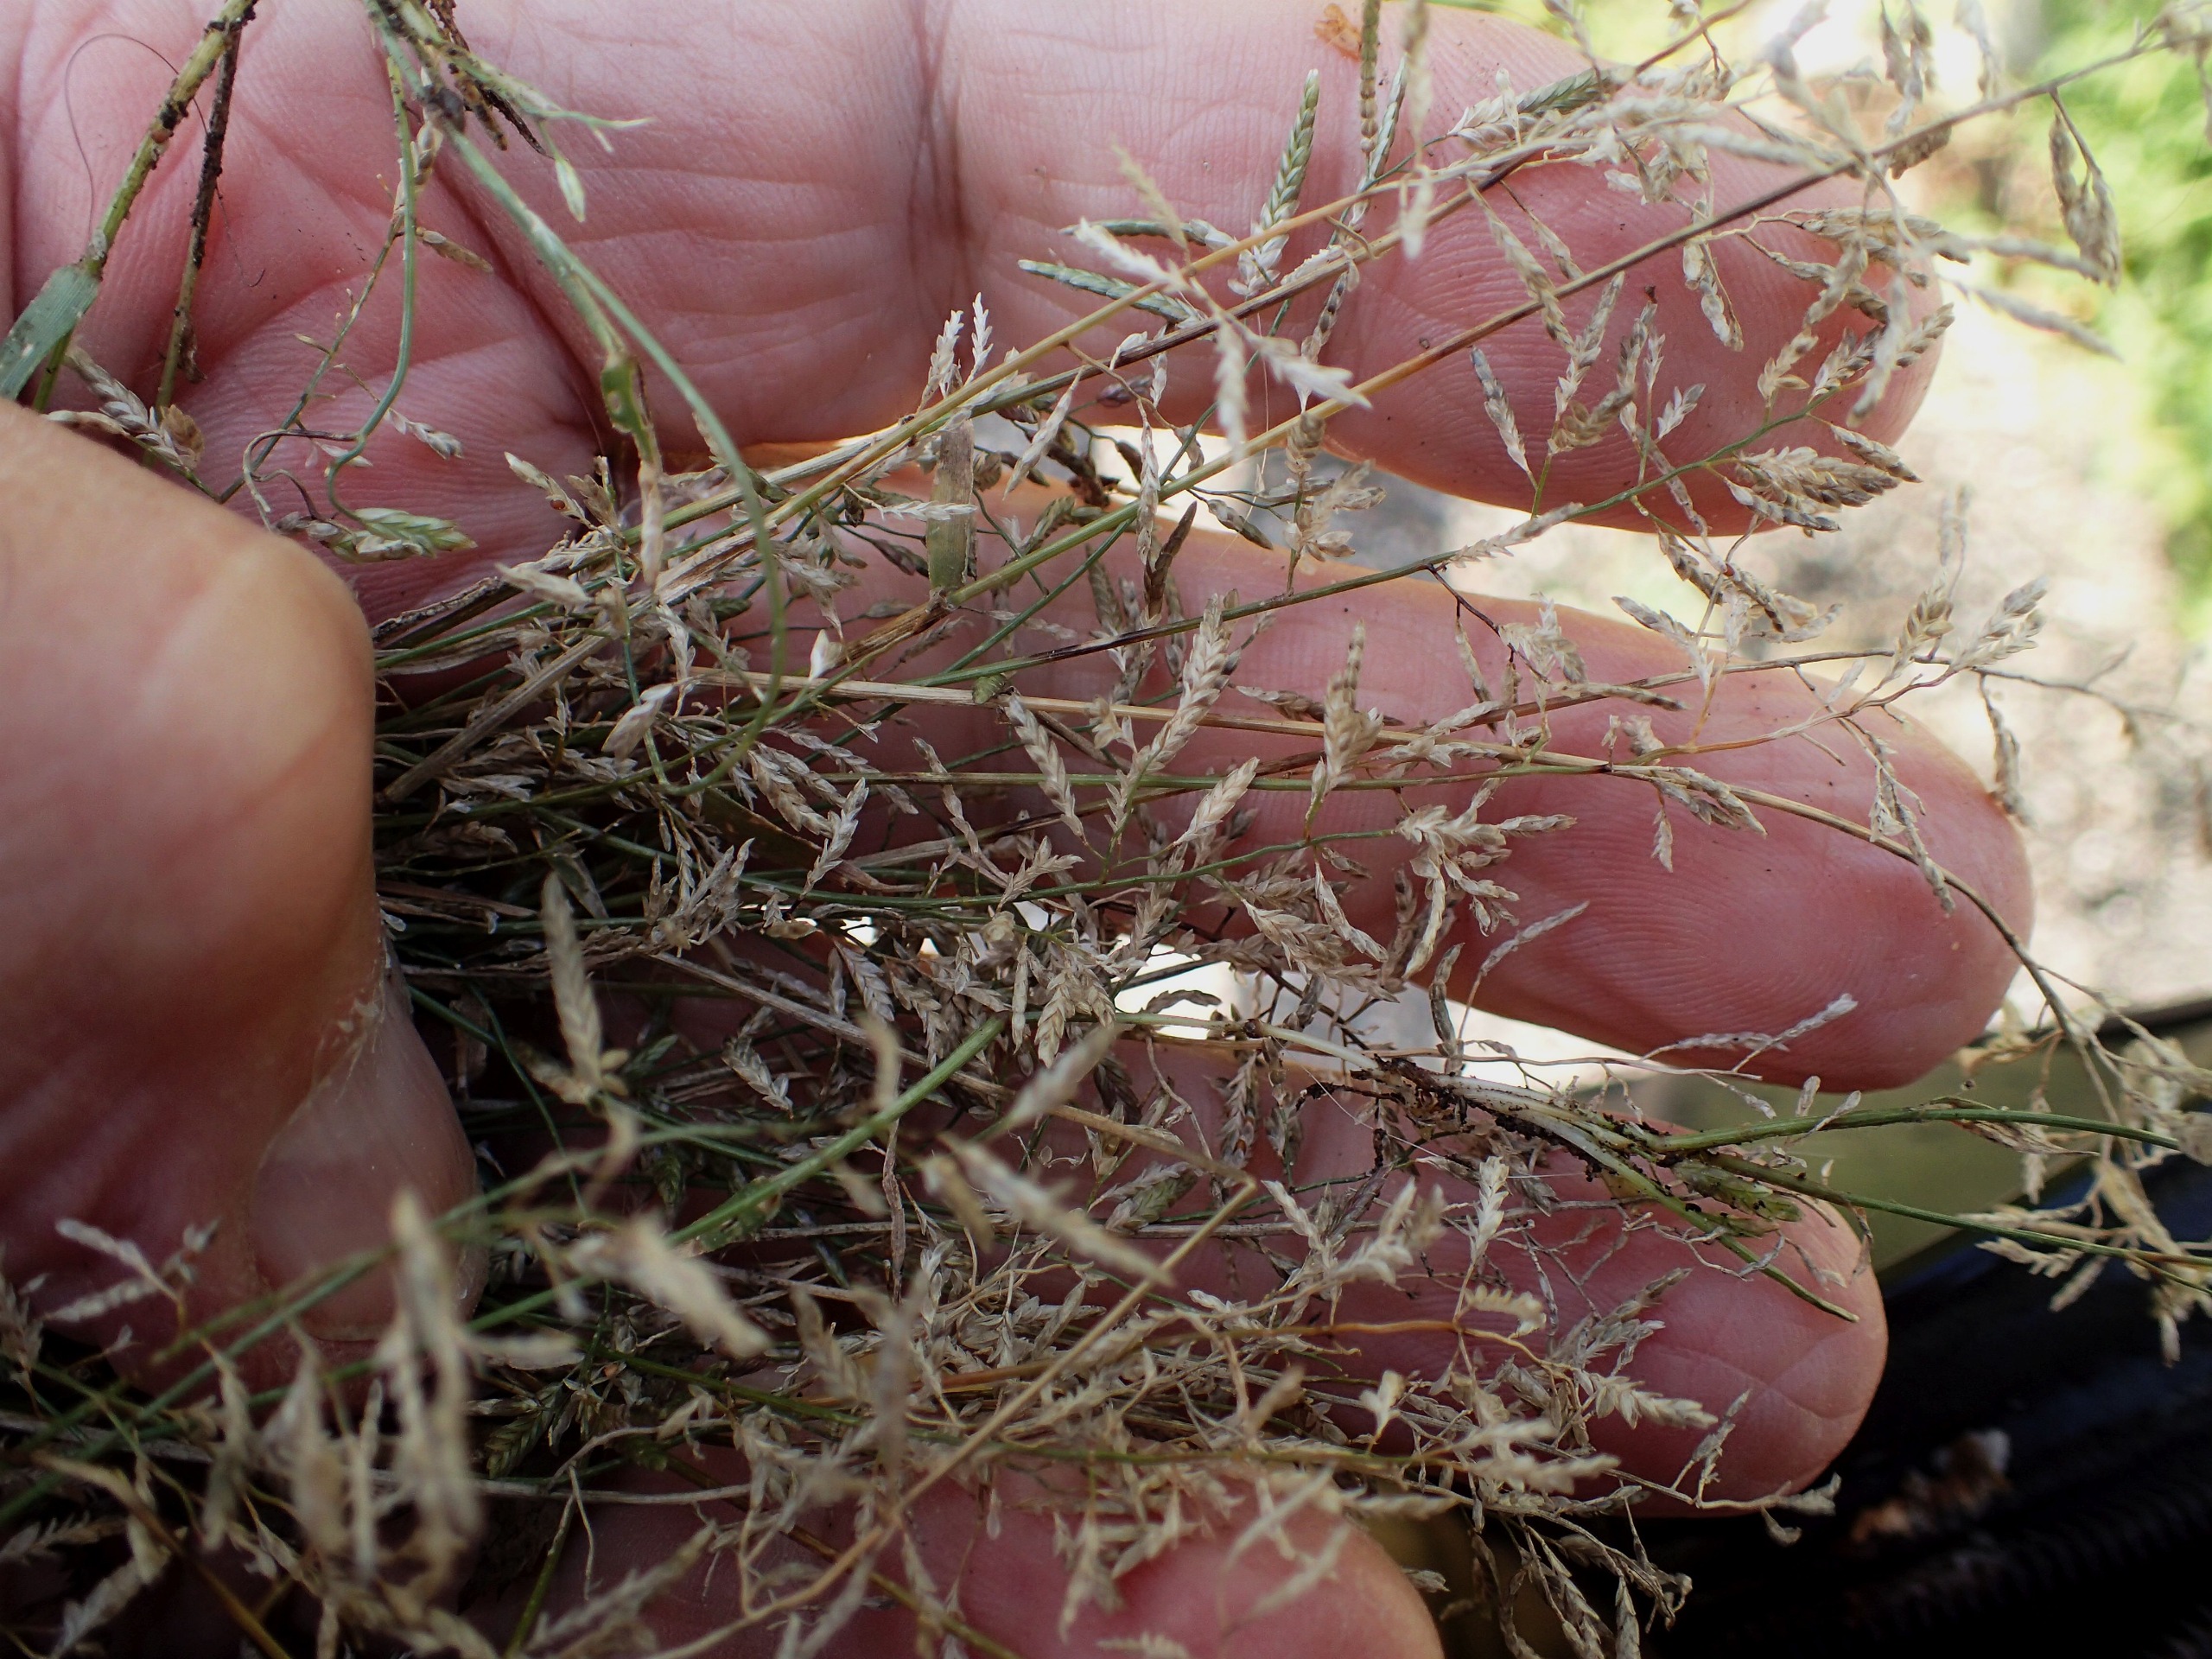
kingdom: Plantae
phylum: Tracheophyta
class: Liliopsida
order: Poales
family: Poaceae
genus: Eragrostis
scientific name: Eragrostis minor
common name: Liden kærlighedsgræs
